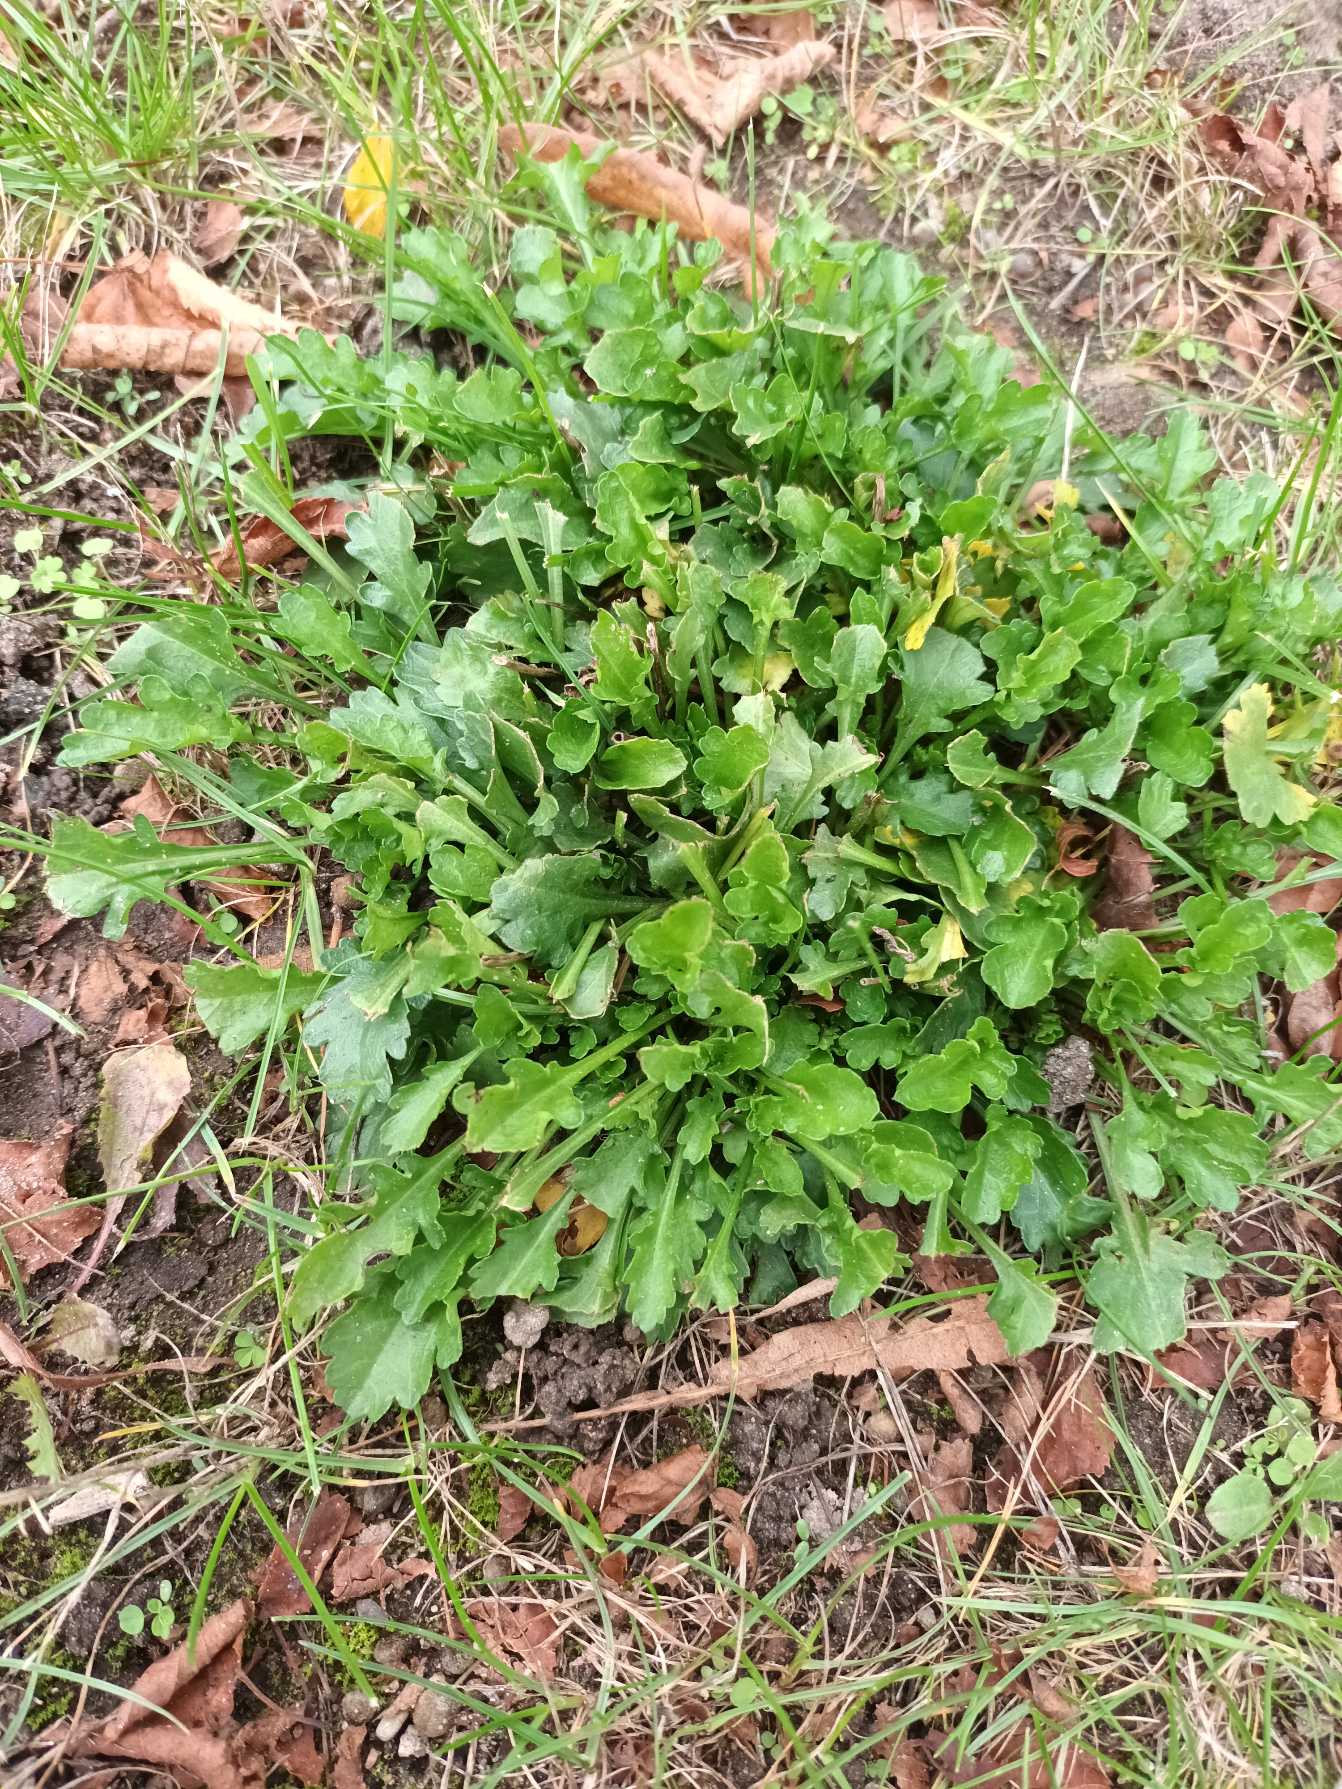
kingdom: Plantae
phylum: Tracheophyta
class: Magnoliopsida
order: Asterales
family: Asteraceae
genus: Leucanthemum
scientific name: Leucanthemum vulgare
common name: Hvid okseøje
